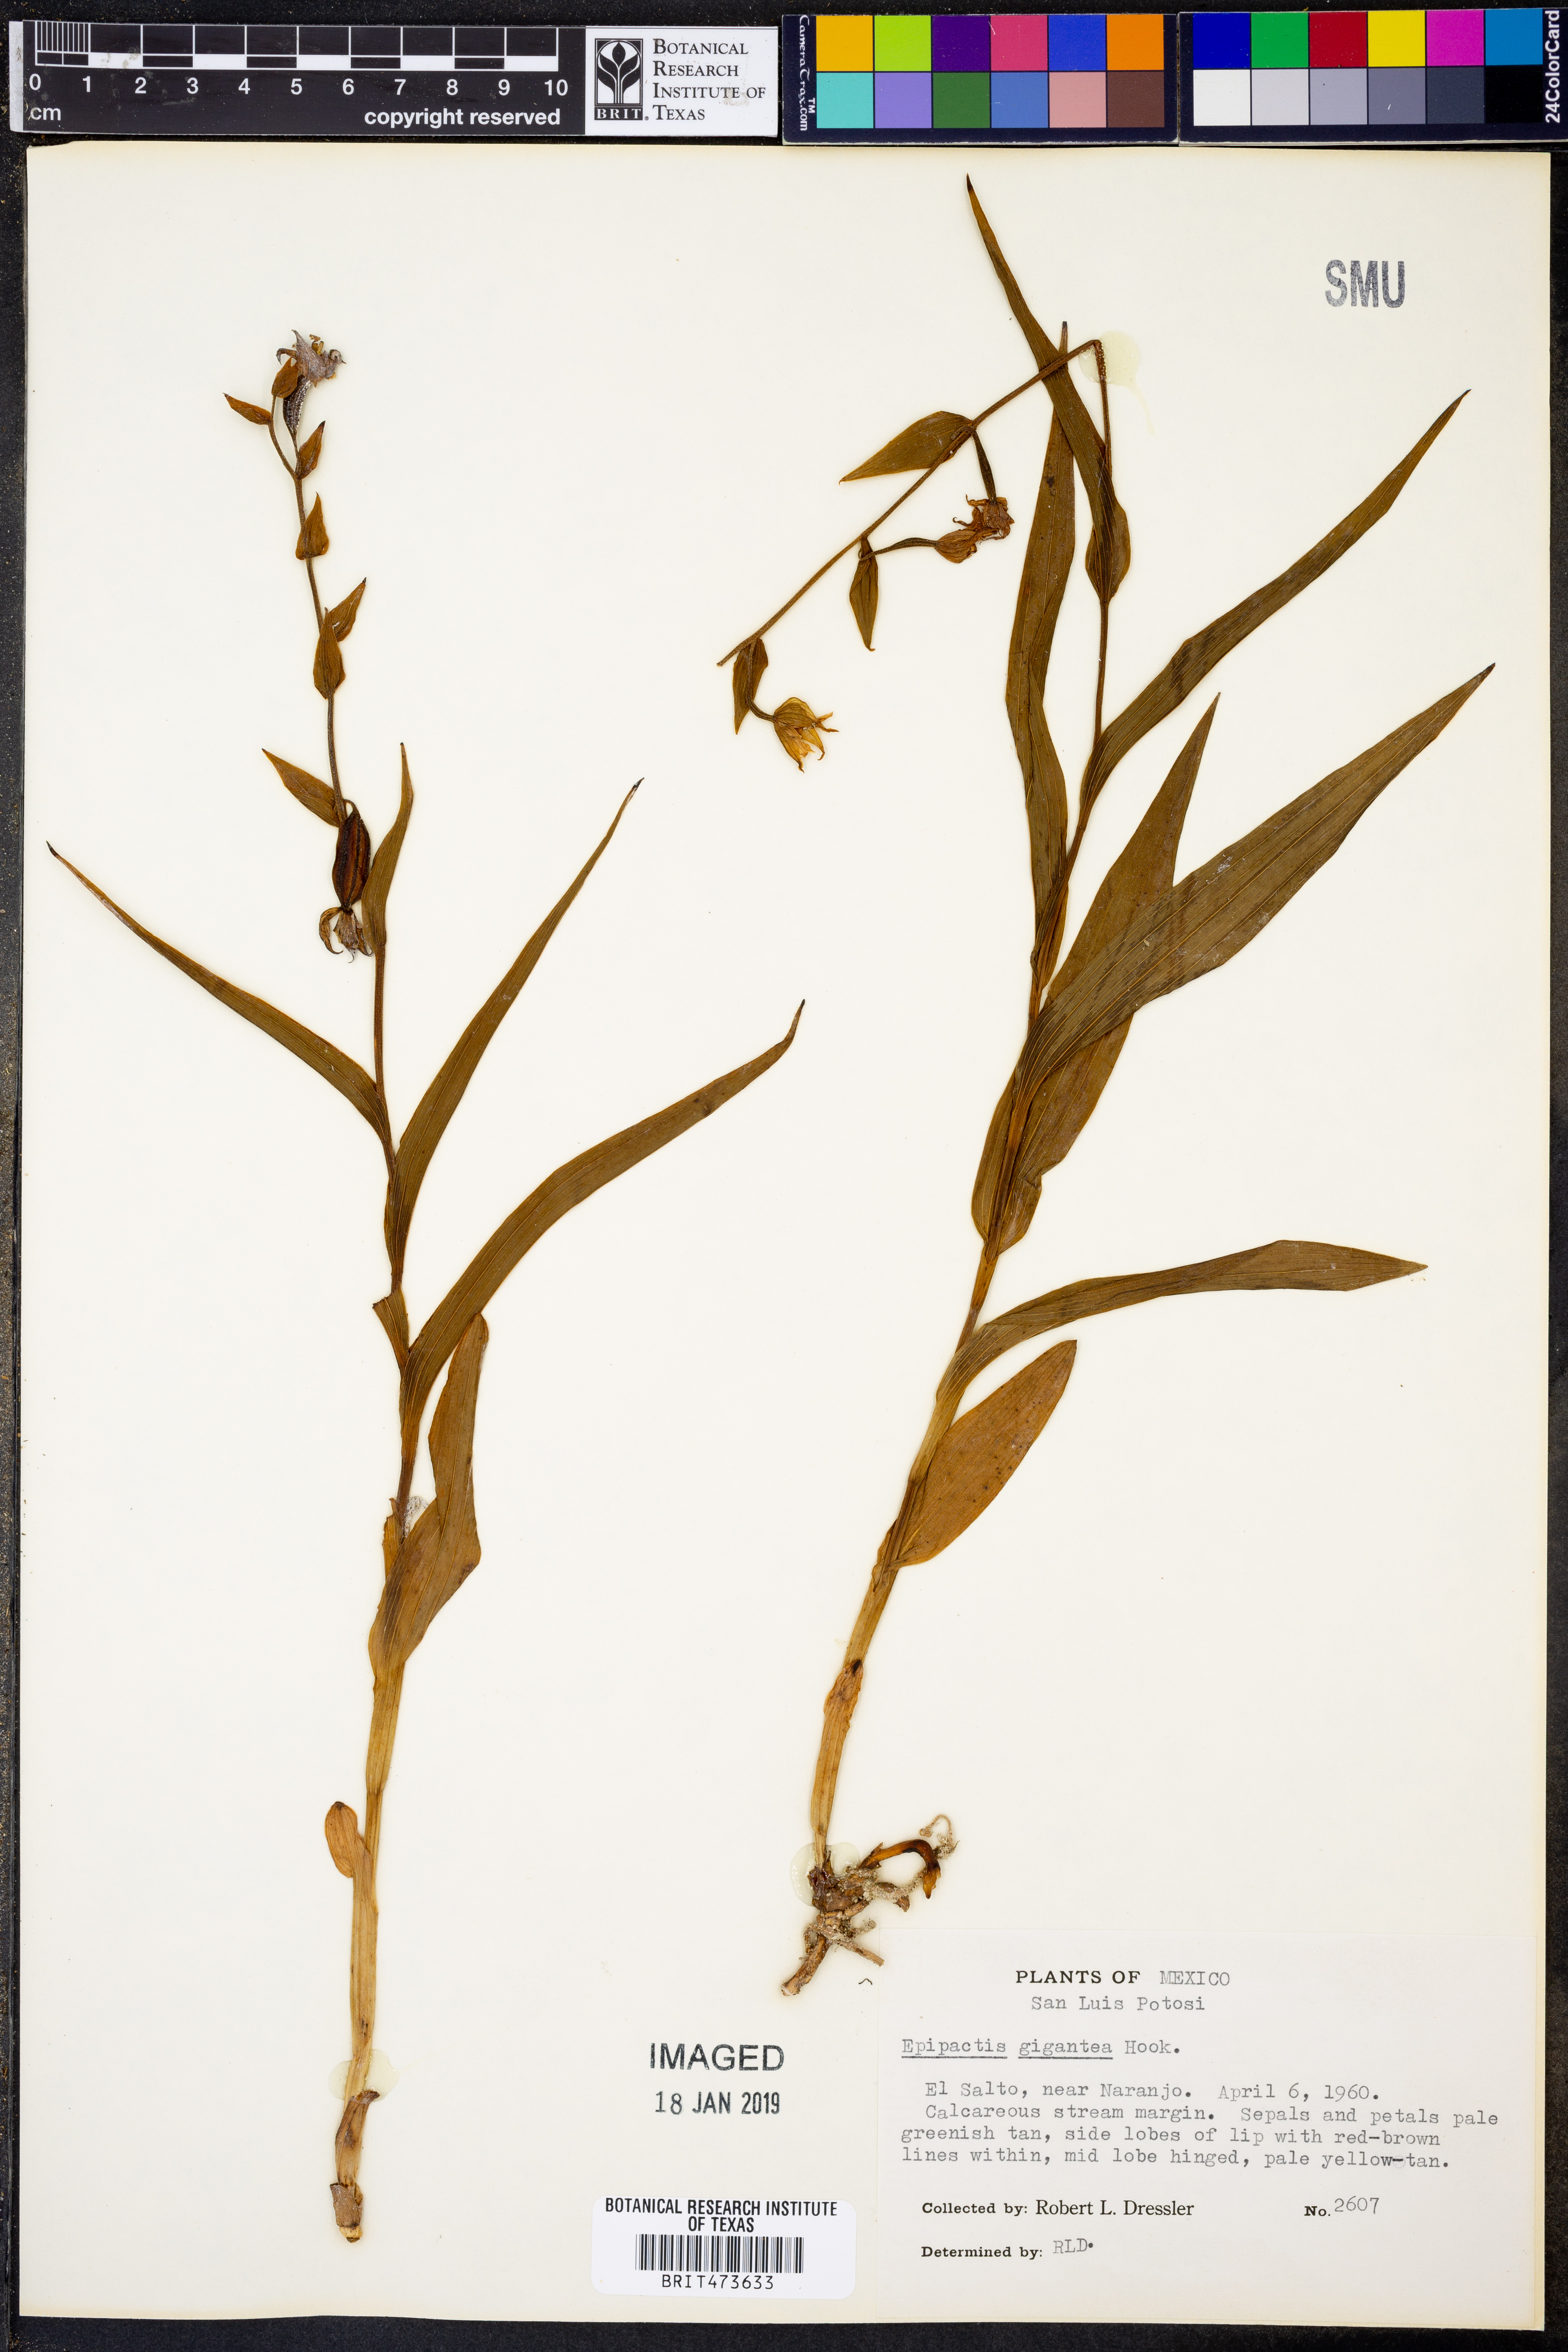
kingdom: Plantae
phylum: Tracheophyta
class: Liliopsida
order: Asparagales
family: Orchidaceae
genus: Epipactis
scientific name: Epipactis gigantea
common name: Chatterbox
